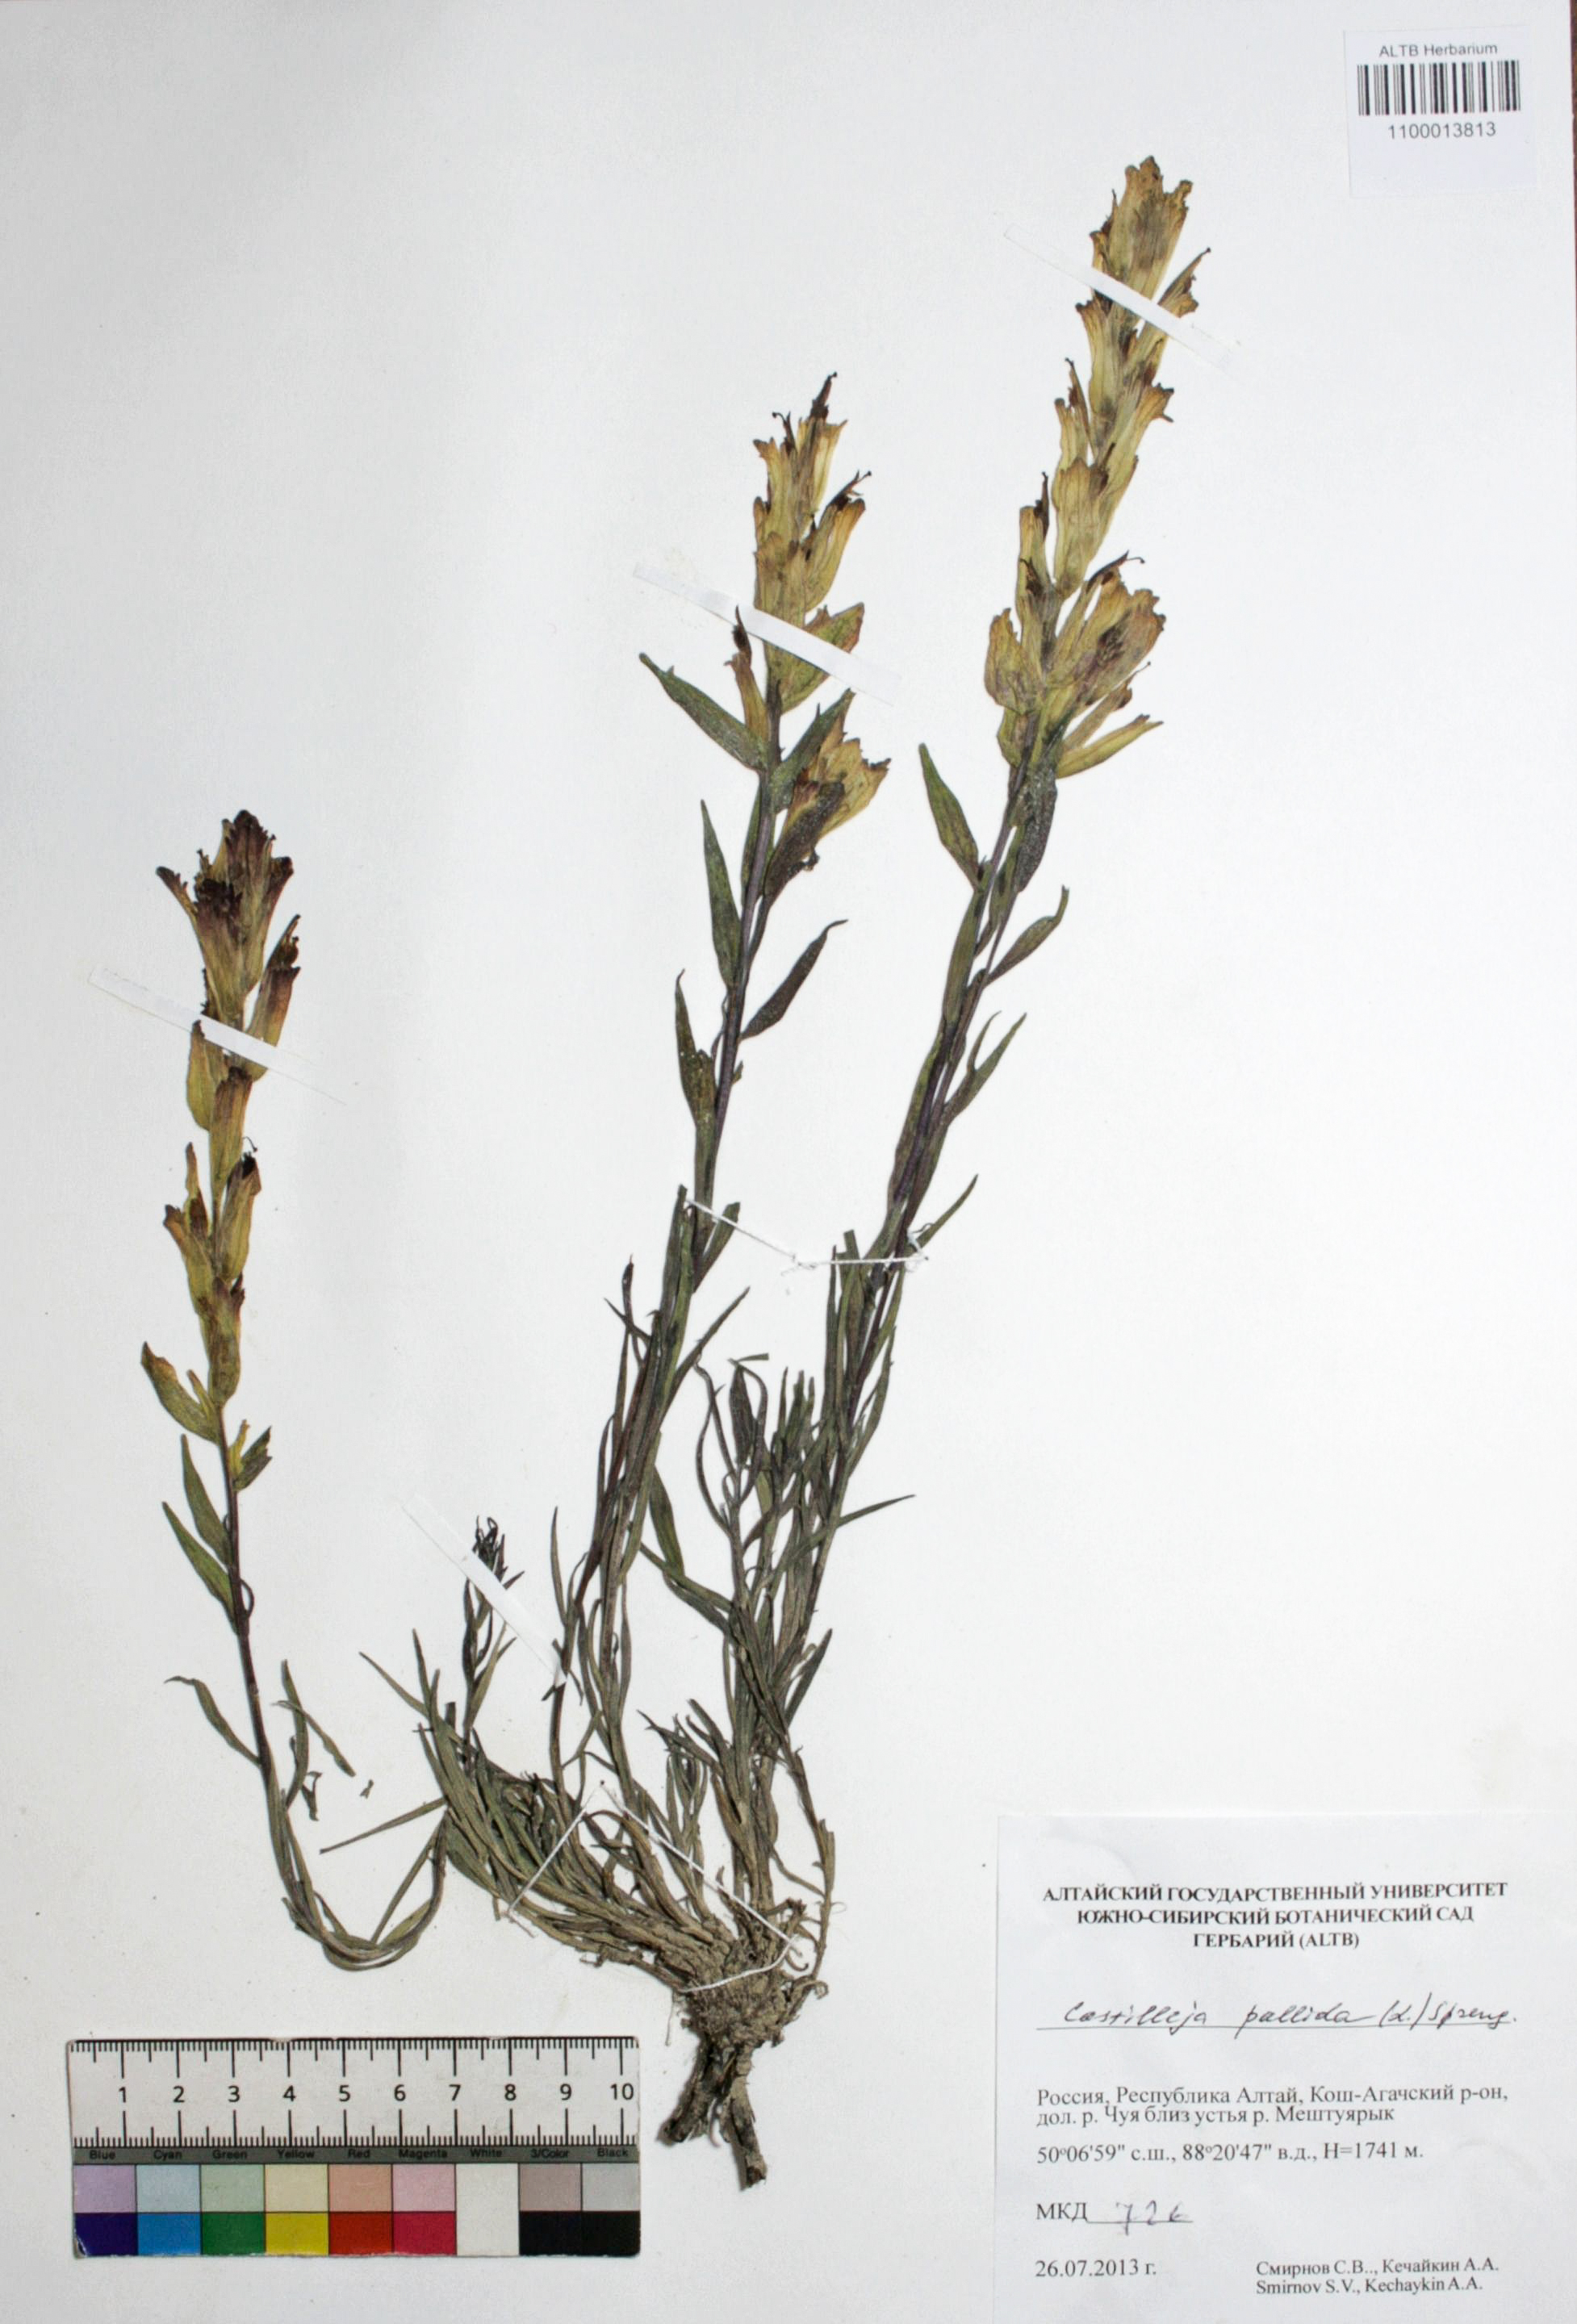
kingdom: Plantae
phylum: Tracheophyta
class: Magnoliopsida
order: Lamiales
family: Orobanchaceae
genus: Castilleja
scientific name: Castilleja pallida
